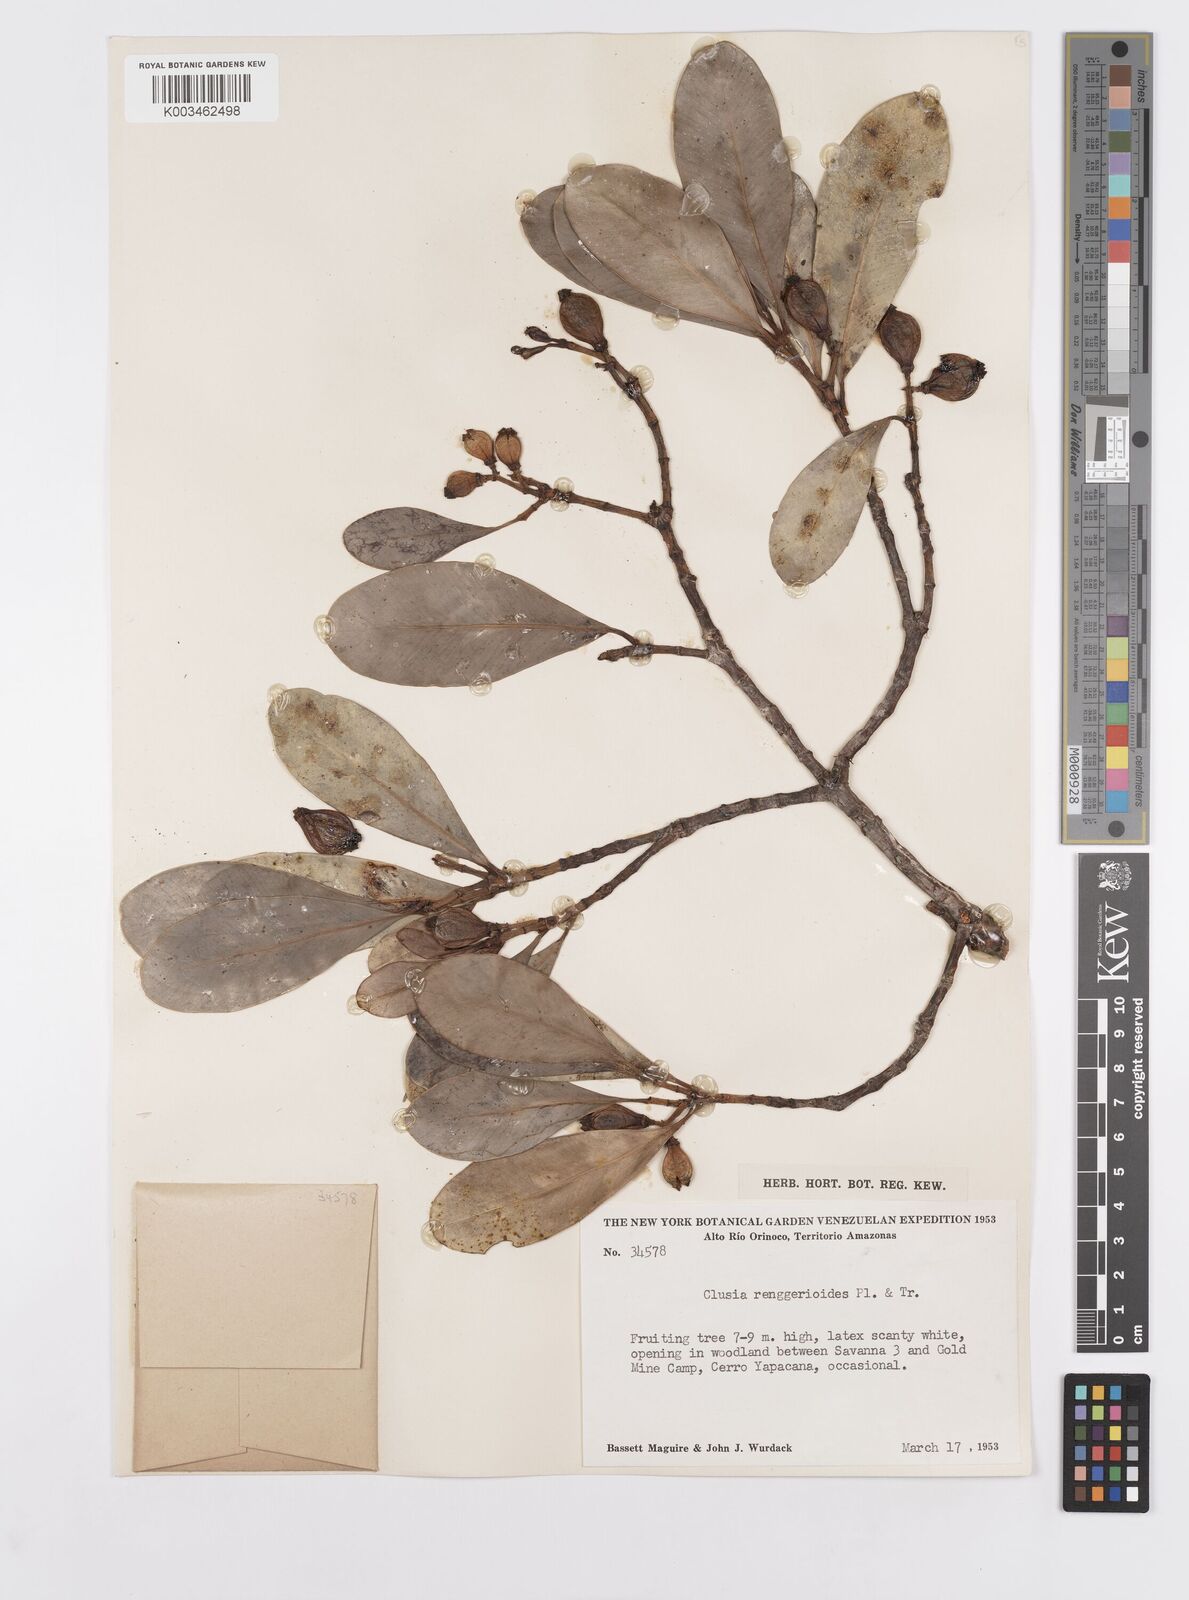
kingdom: Plantae
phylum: Tracheophyta
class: Magnoliopsida
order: Malpighiales
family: Clusiaceae
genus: Clusia
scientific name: Clusia renggerioides
